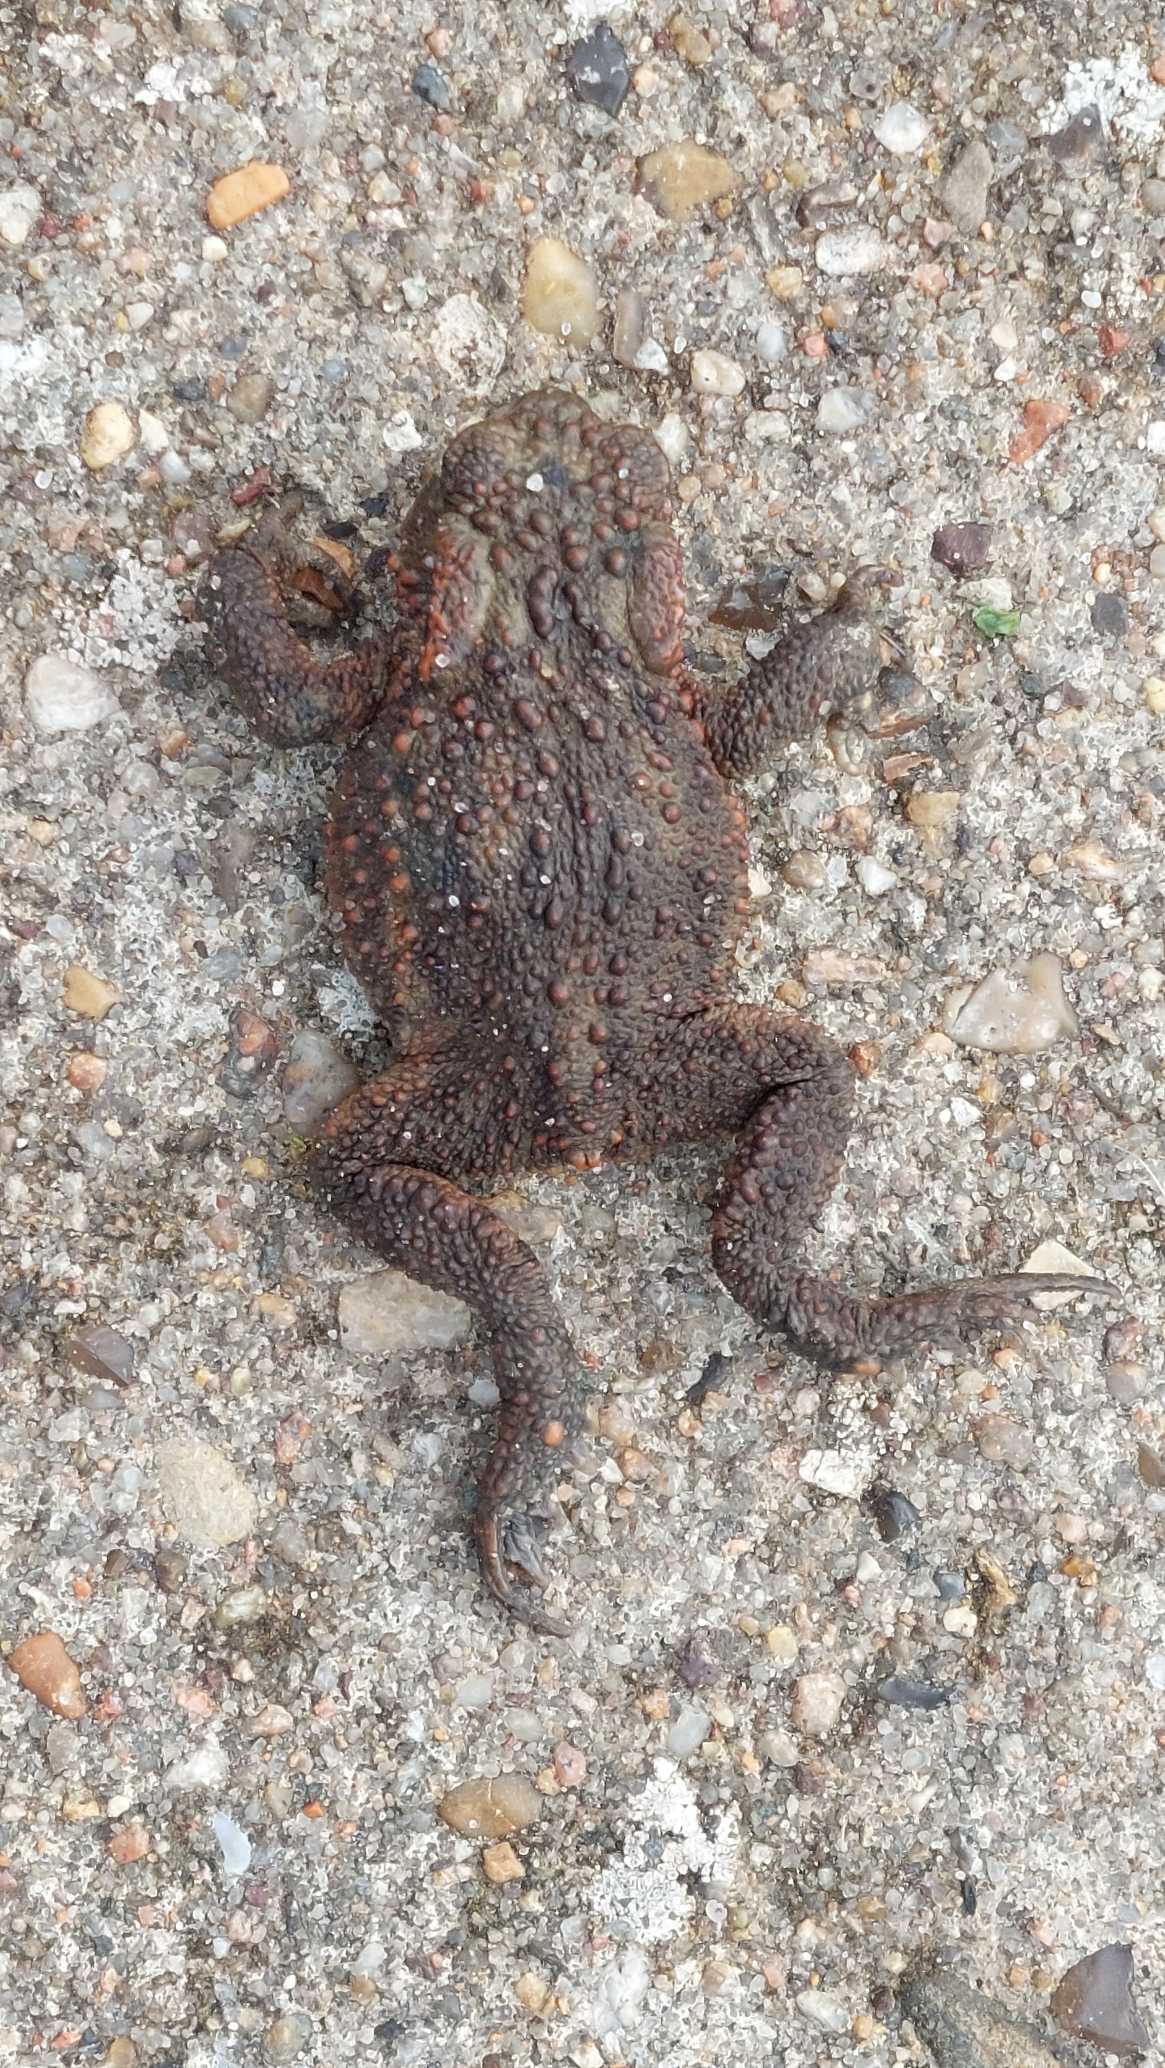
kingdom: Animalia
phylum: Chordata
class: Amphibia
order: Anura
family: Bufonidae
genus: Bufo
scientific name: Bufo bufo
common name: Skrubtudse
